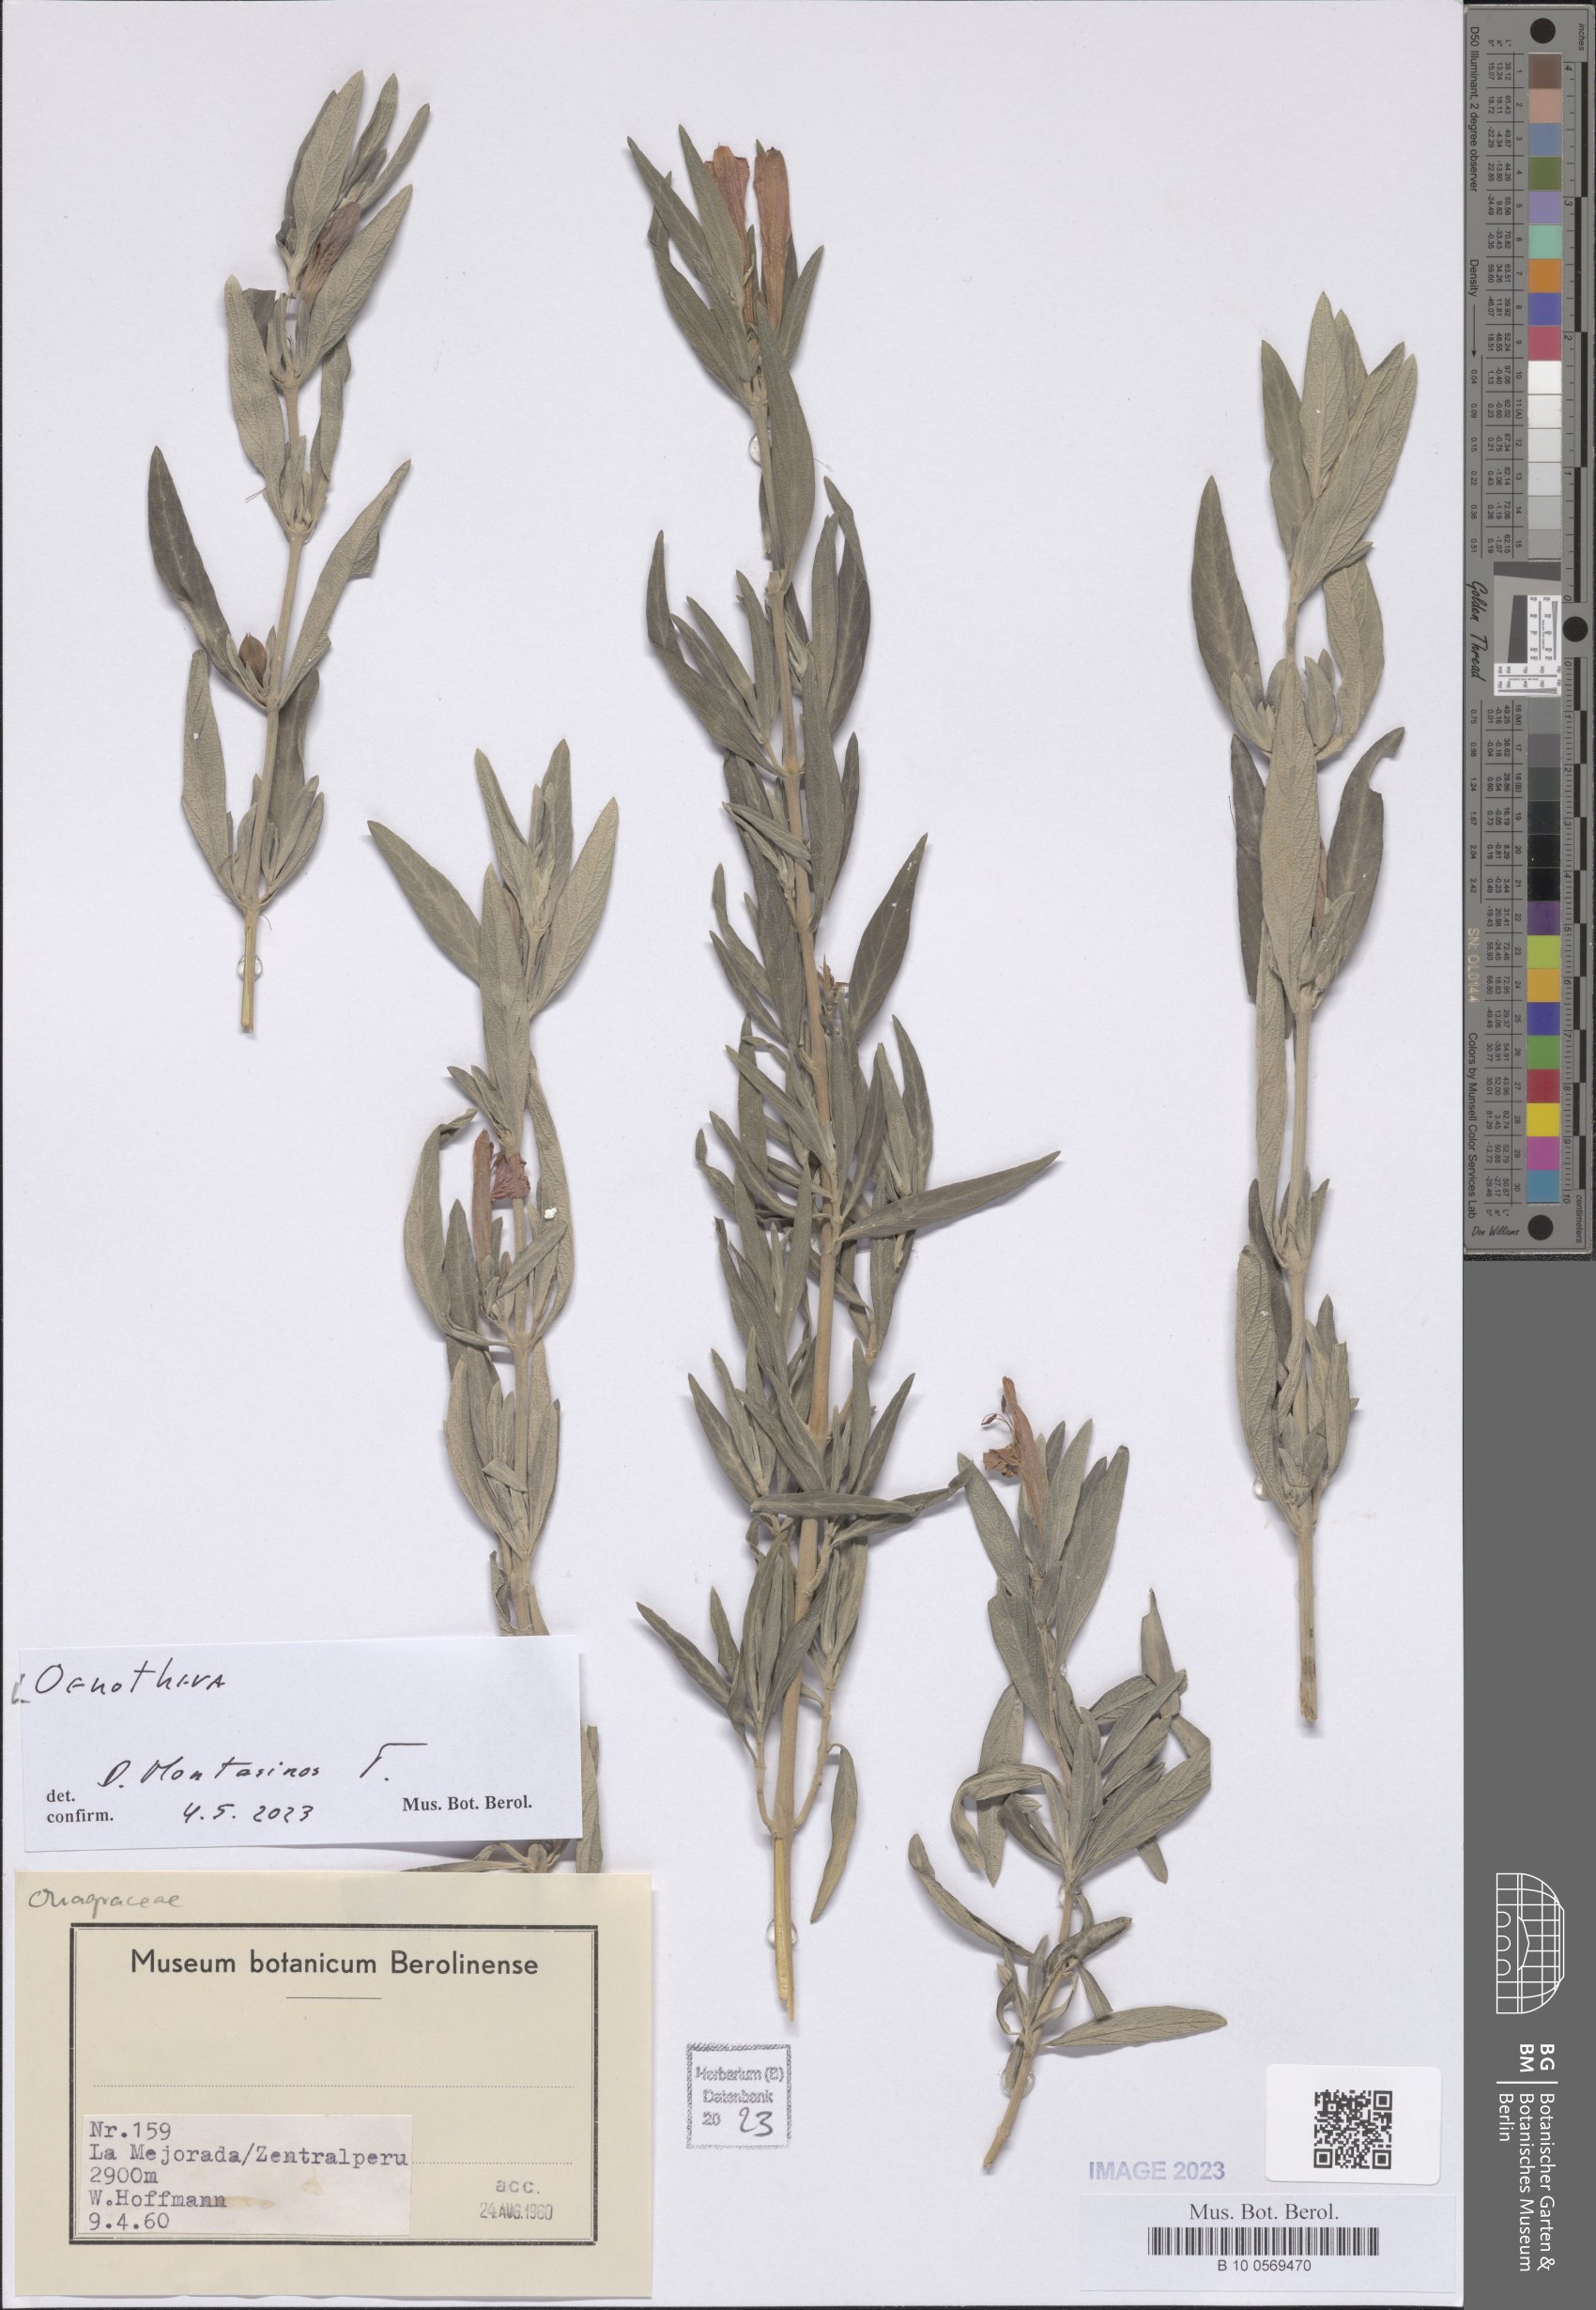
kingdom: Plantae
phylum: Tracheophyta
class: Magnoliopsida
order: Myrtales
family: Onagraceae
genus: Oenothera
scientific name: Oenothera
